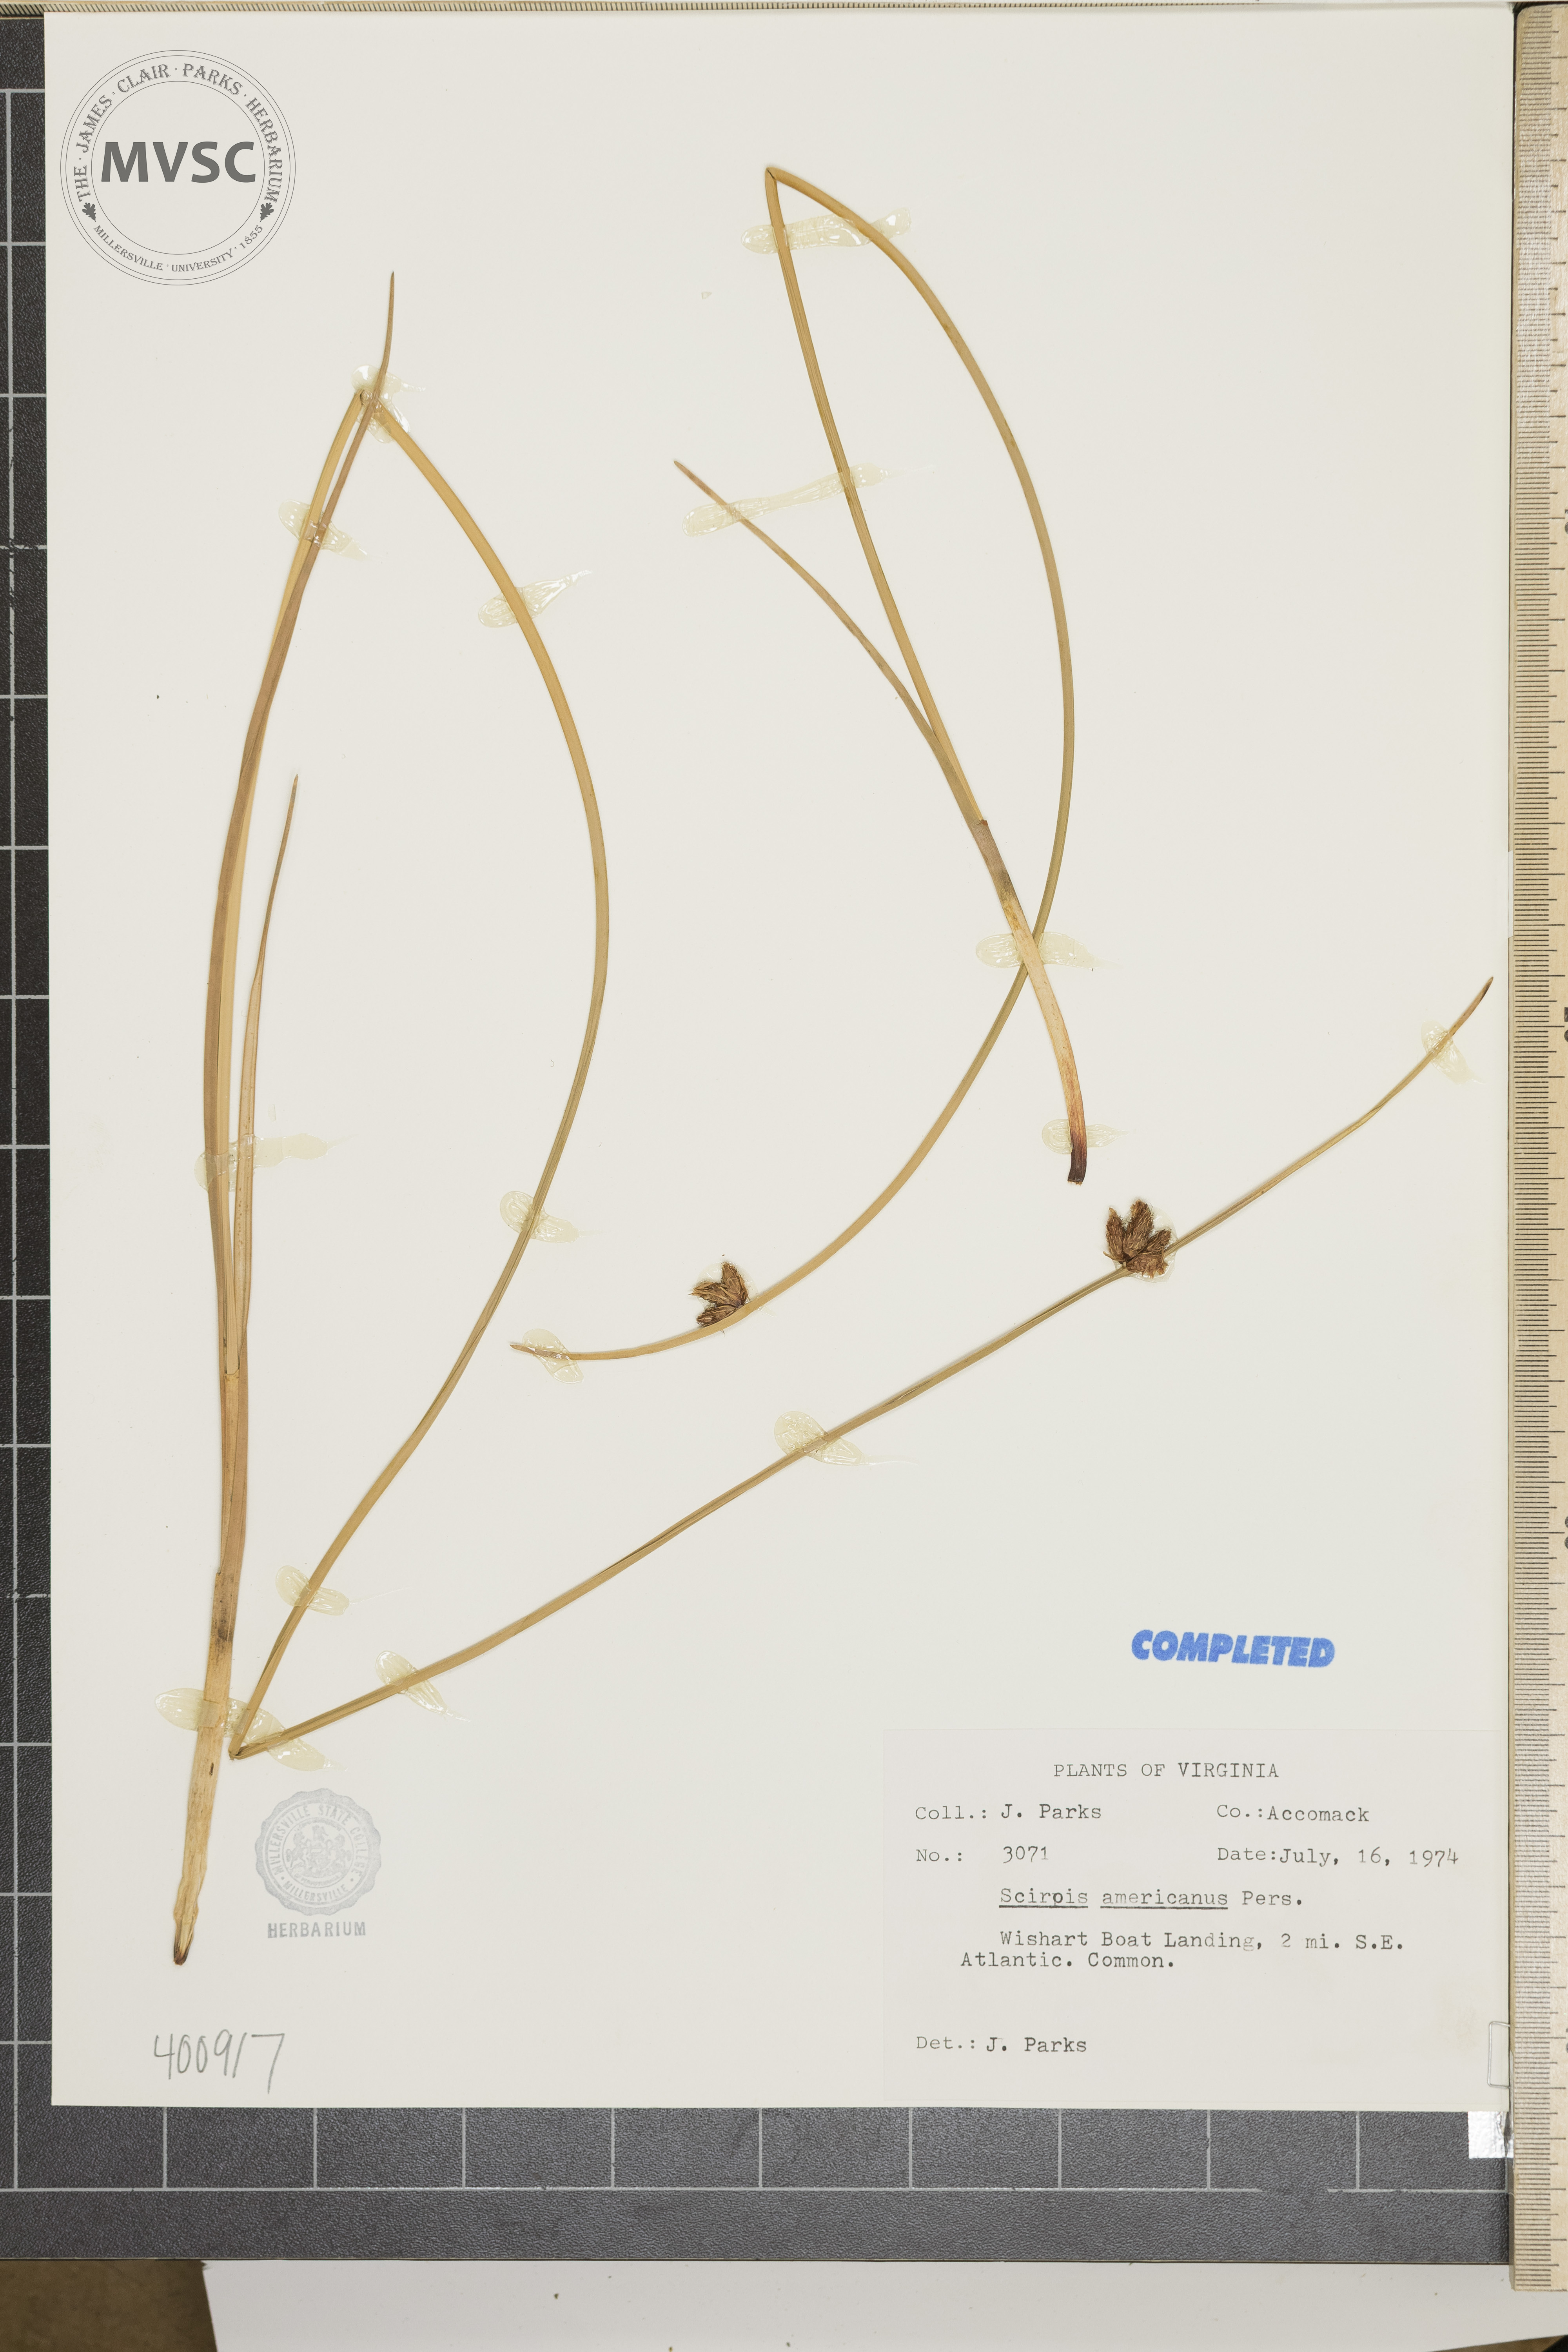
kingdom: Plantae
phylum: Tracheophyta
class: Liliopsida
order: Poales
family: Cyperaceae
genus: Scirpus
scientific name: Scirpus polyphyllus
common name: sedge
